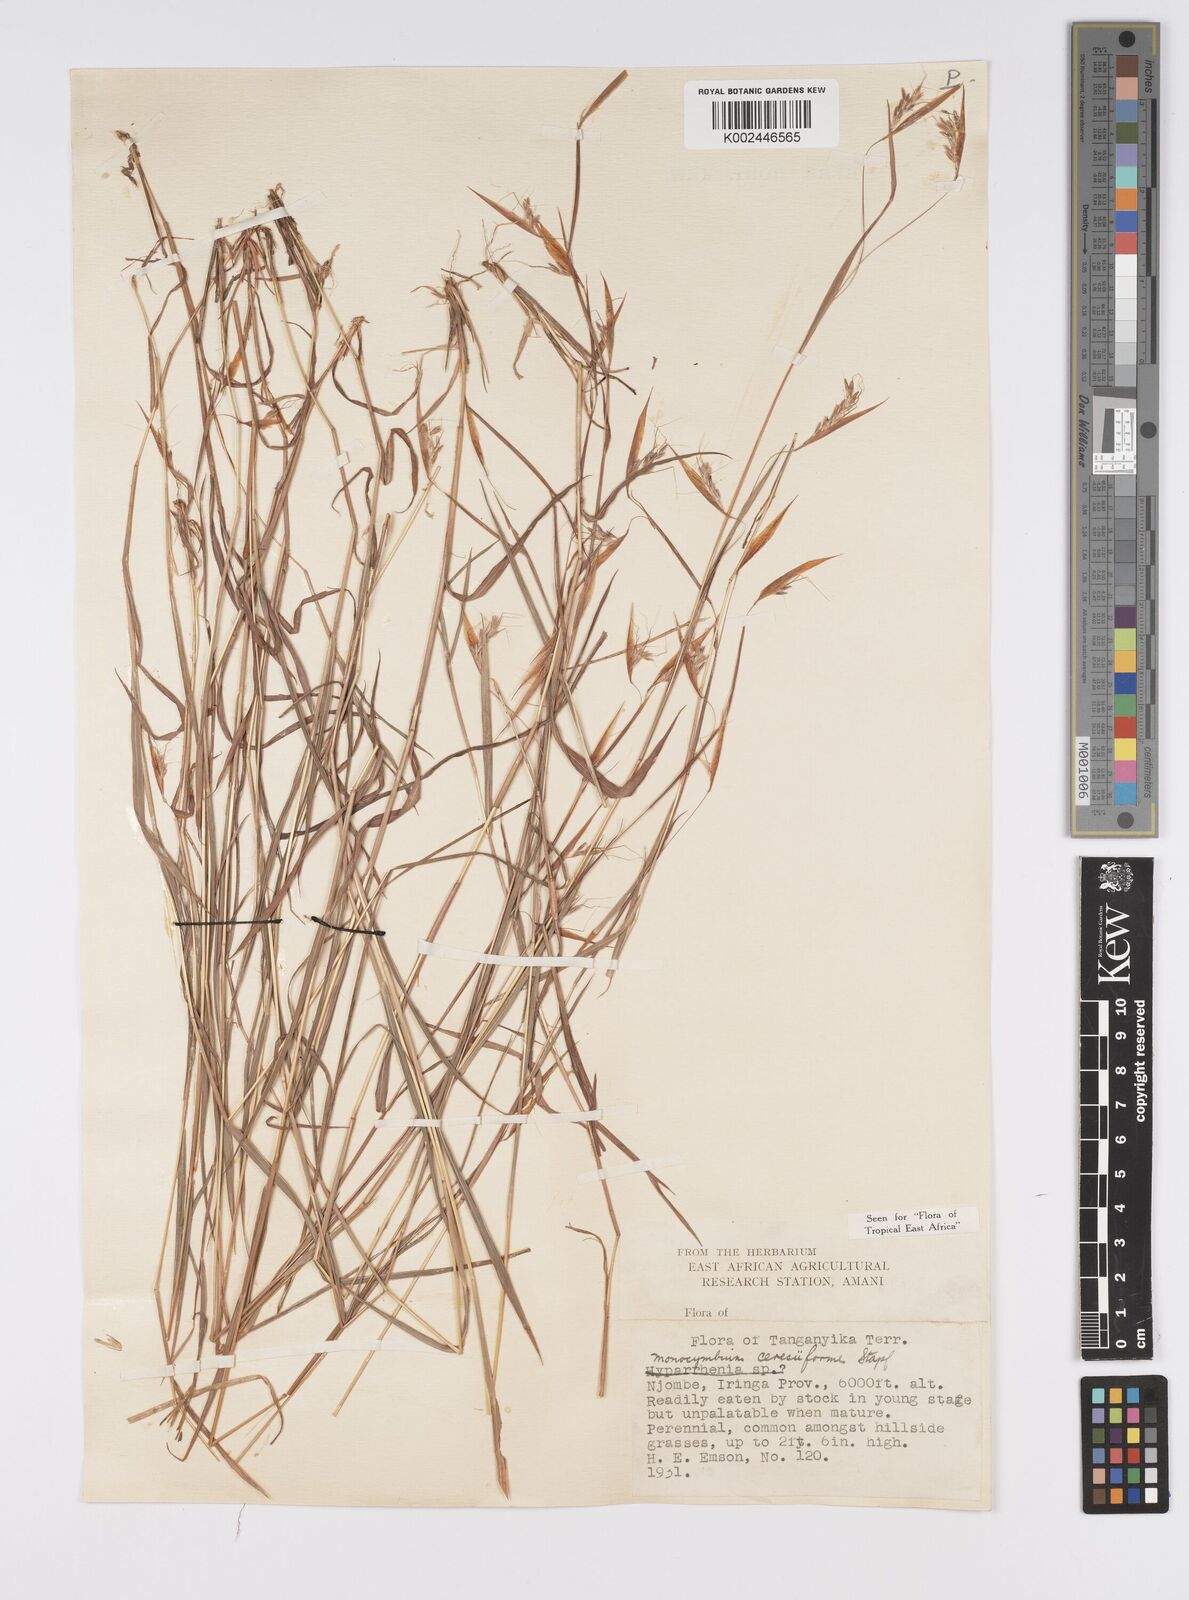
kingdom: Plantae
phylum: Tracheophyta
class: Liliopsida
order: Poales
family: Poaceae
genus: Monocymbium
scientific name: Monocymbium ceresiiforme
